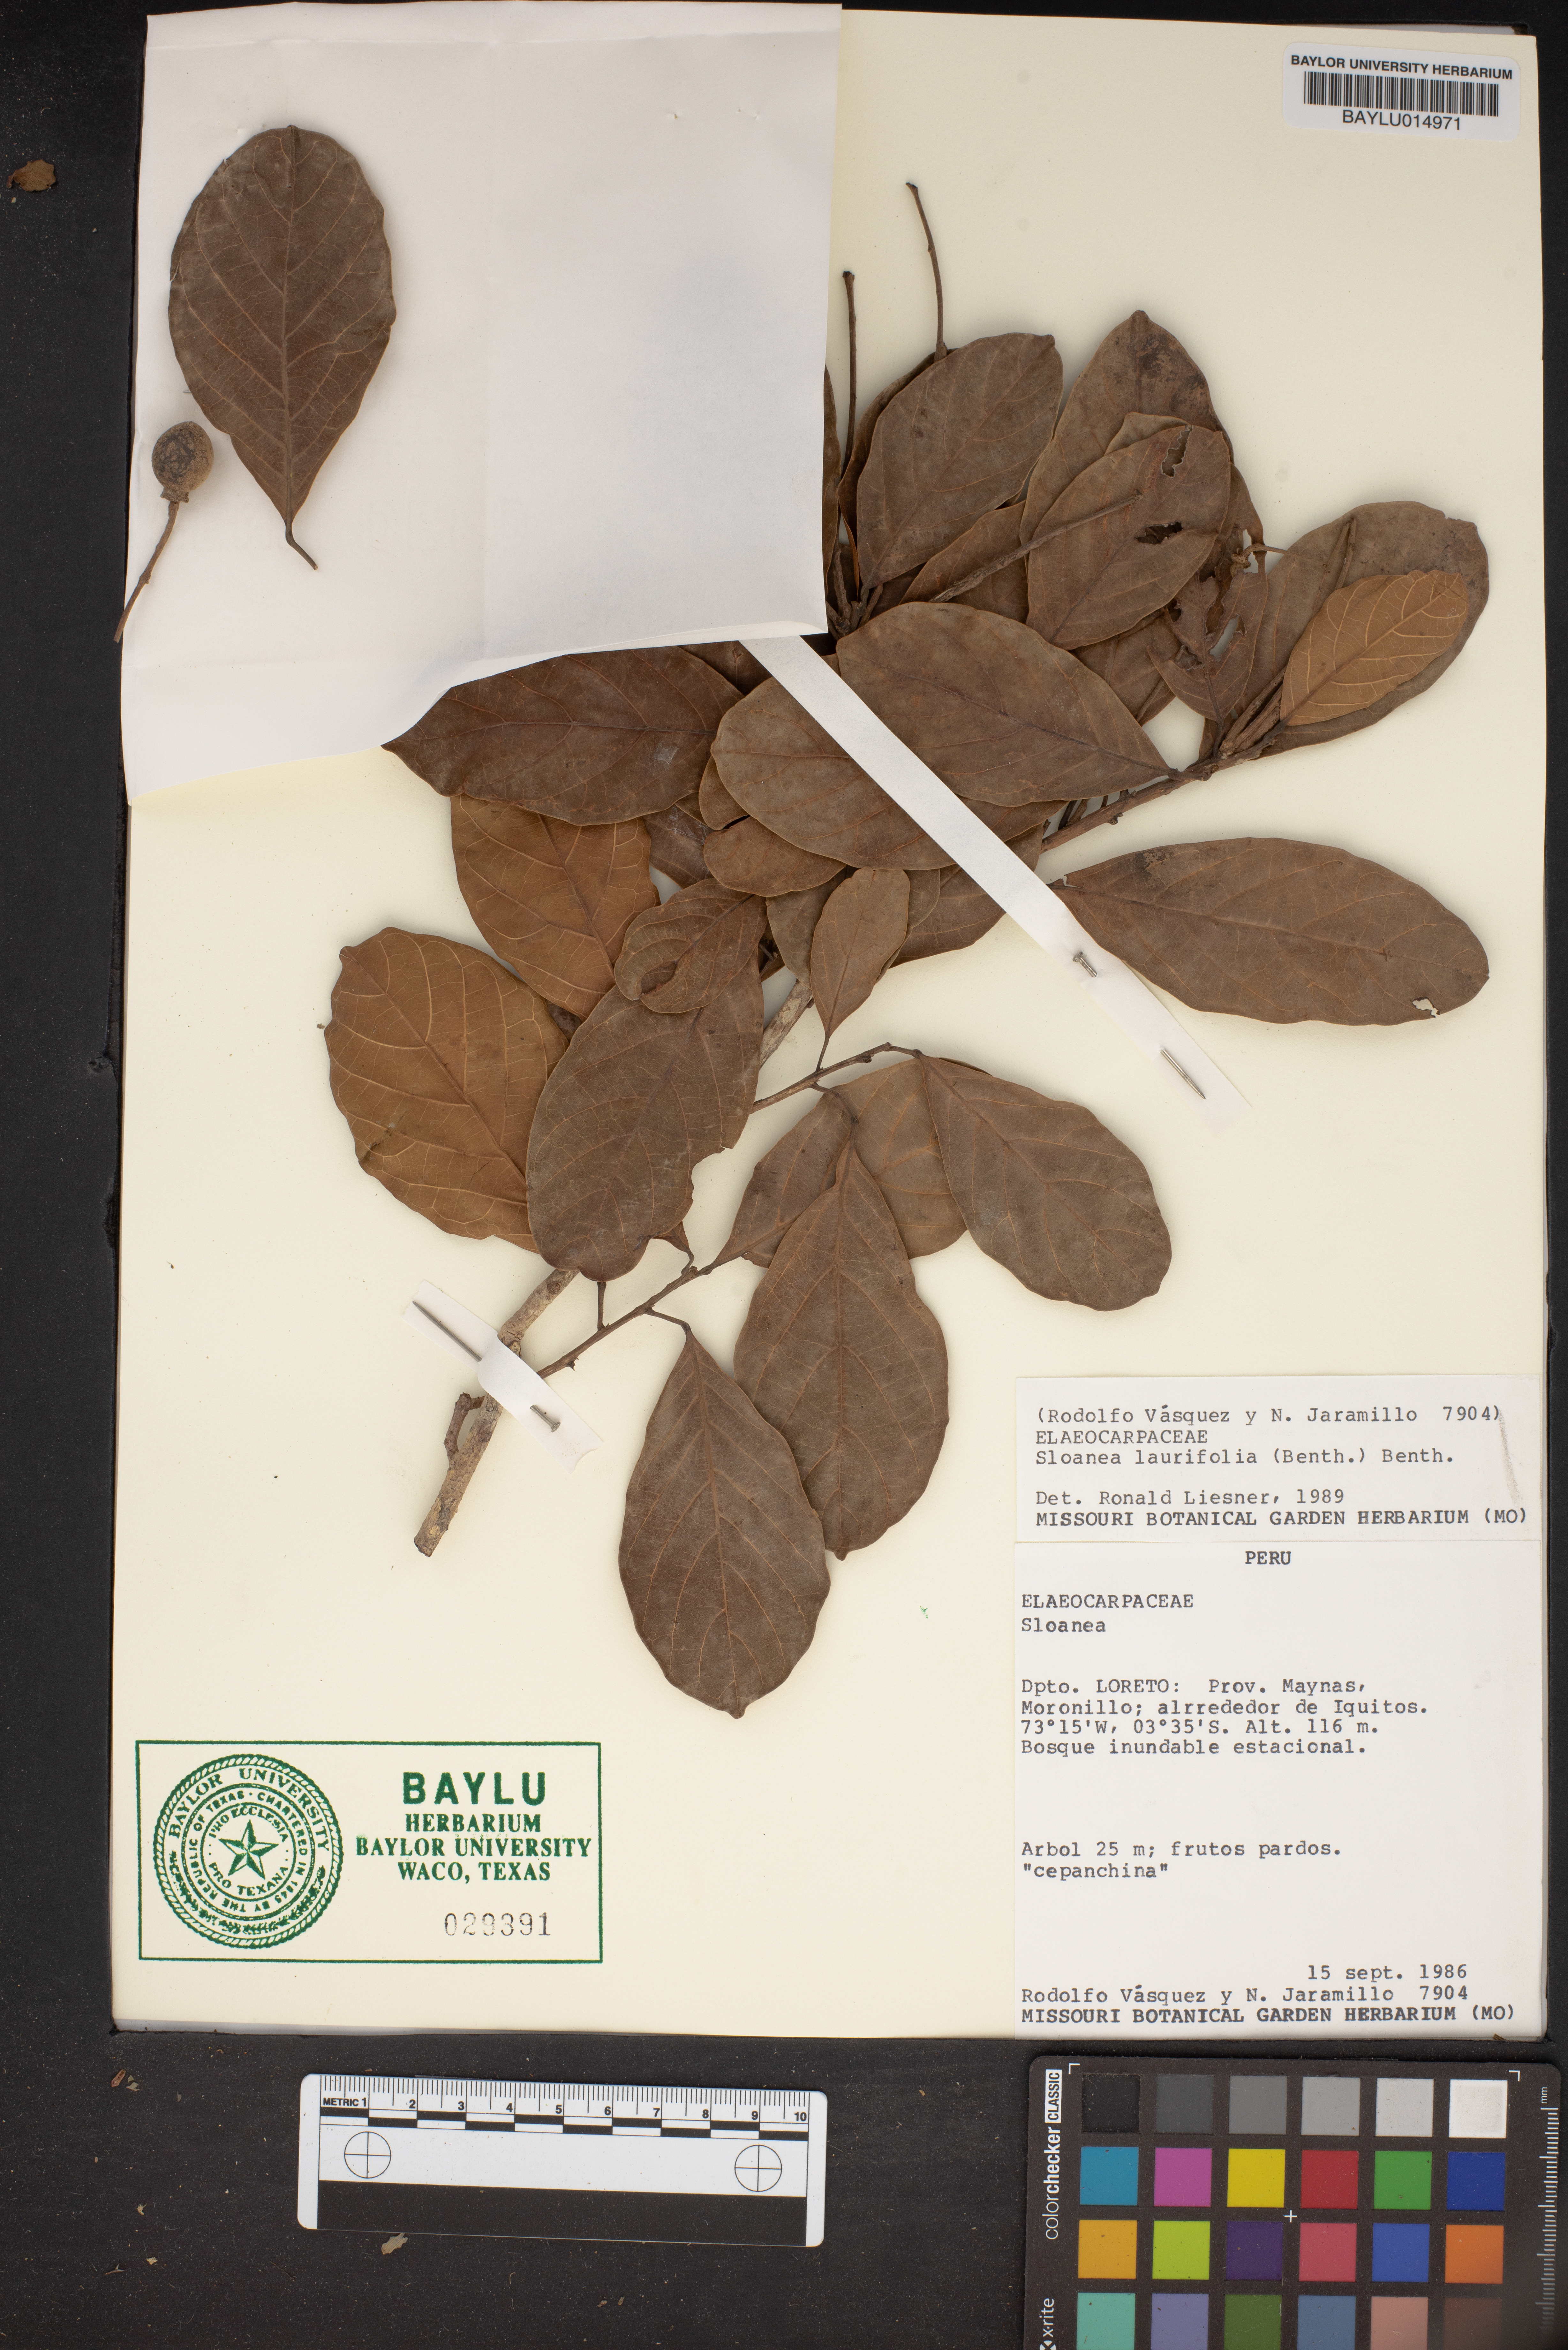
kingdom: Plantae
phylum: Tracheophyta
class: Magnoliopsida
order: Oxalidales
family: Elaeocarpaceae
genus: Sloanea
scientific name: Sloanea laurifolia
